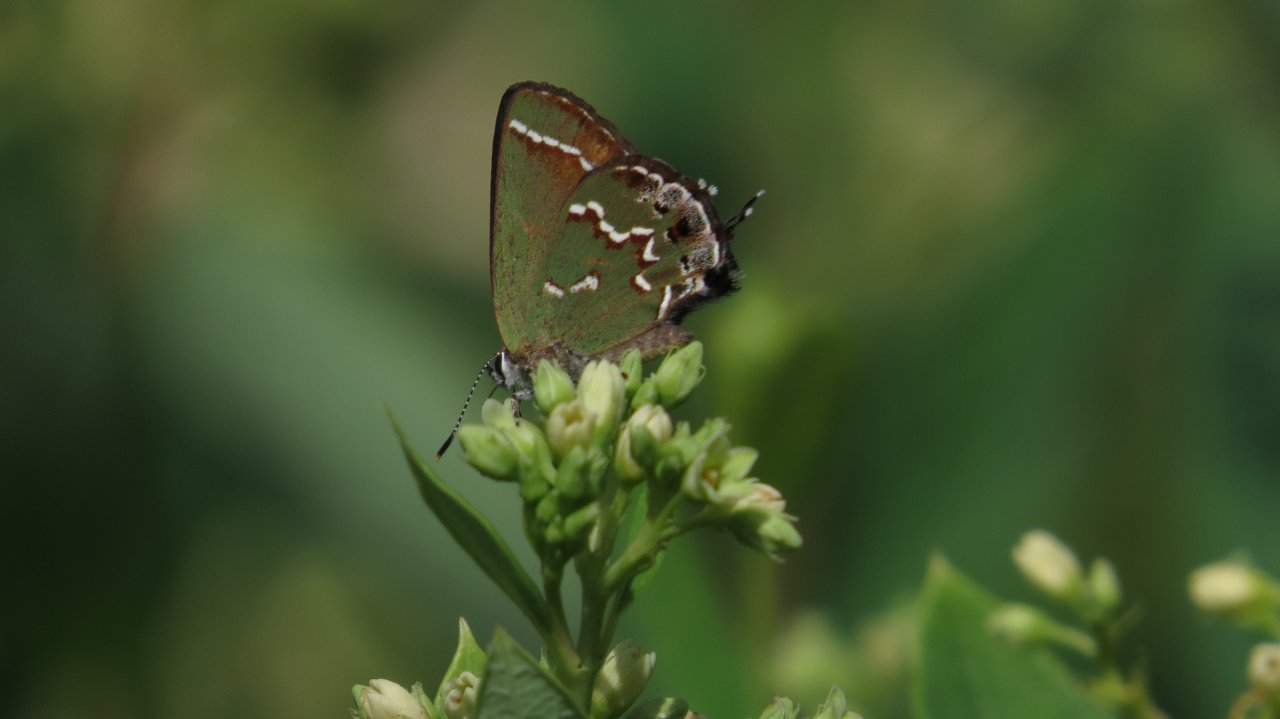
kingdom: Animalia
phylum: Arthropoda
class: Insecta
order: Lepidoptera
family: Lycaenidae
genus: Mitoura
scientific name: Mitoura gryneus
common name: Juniper Hairstreak
